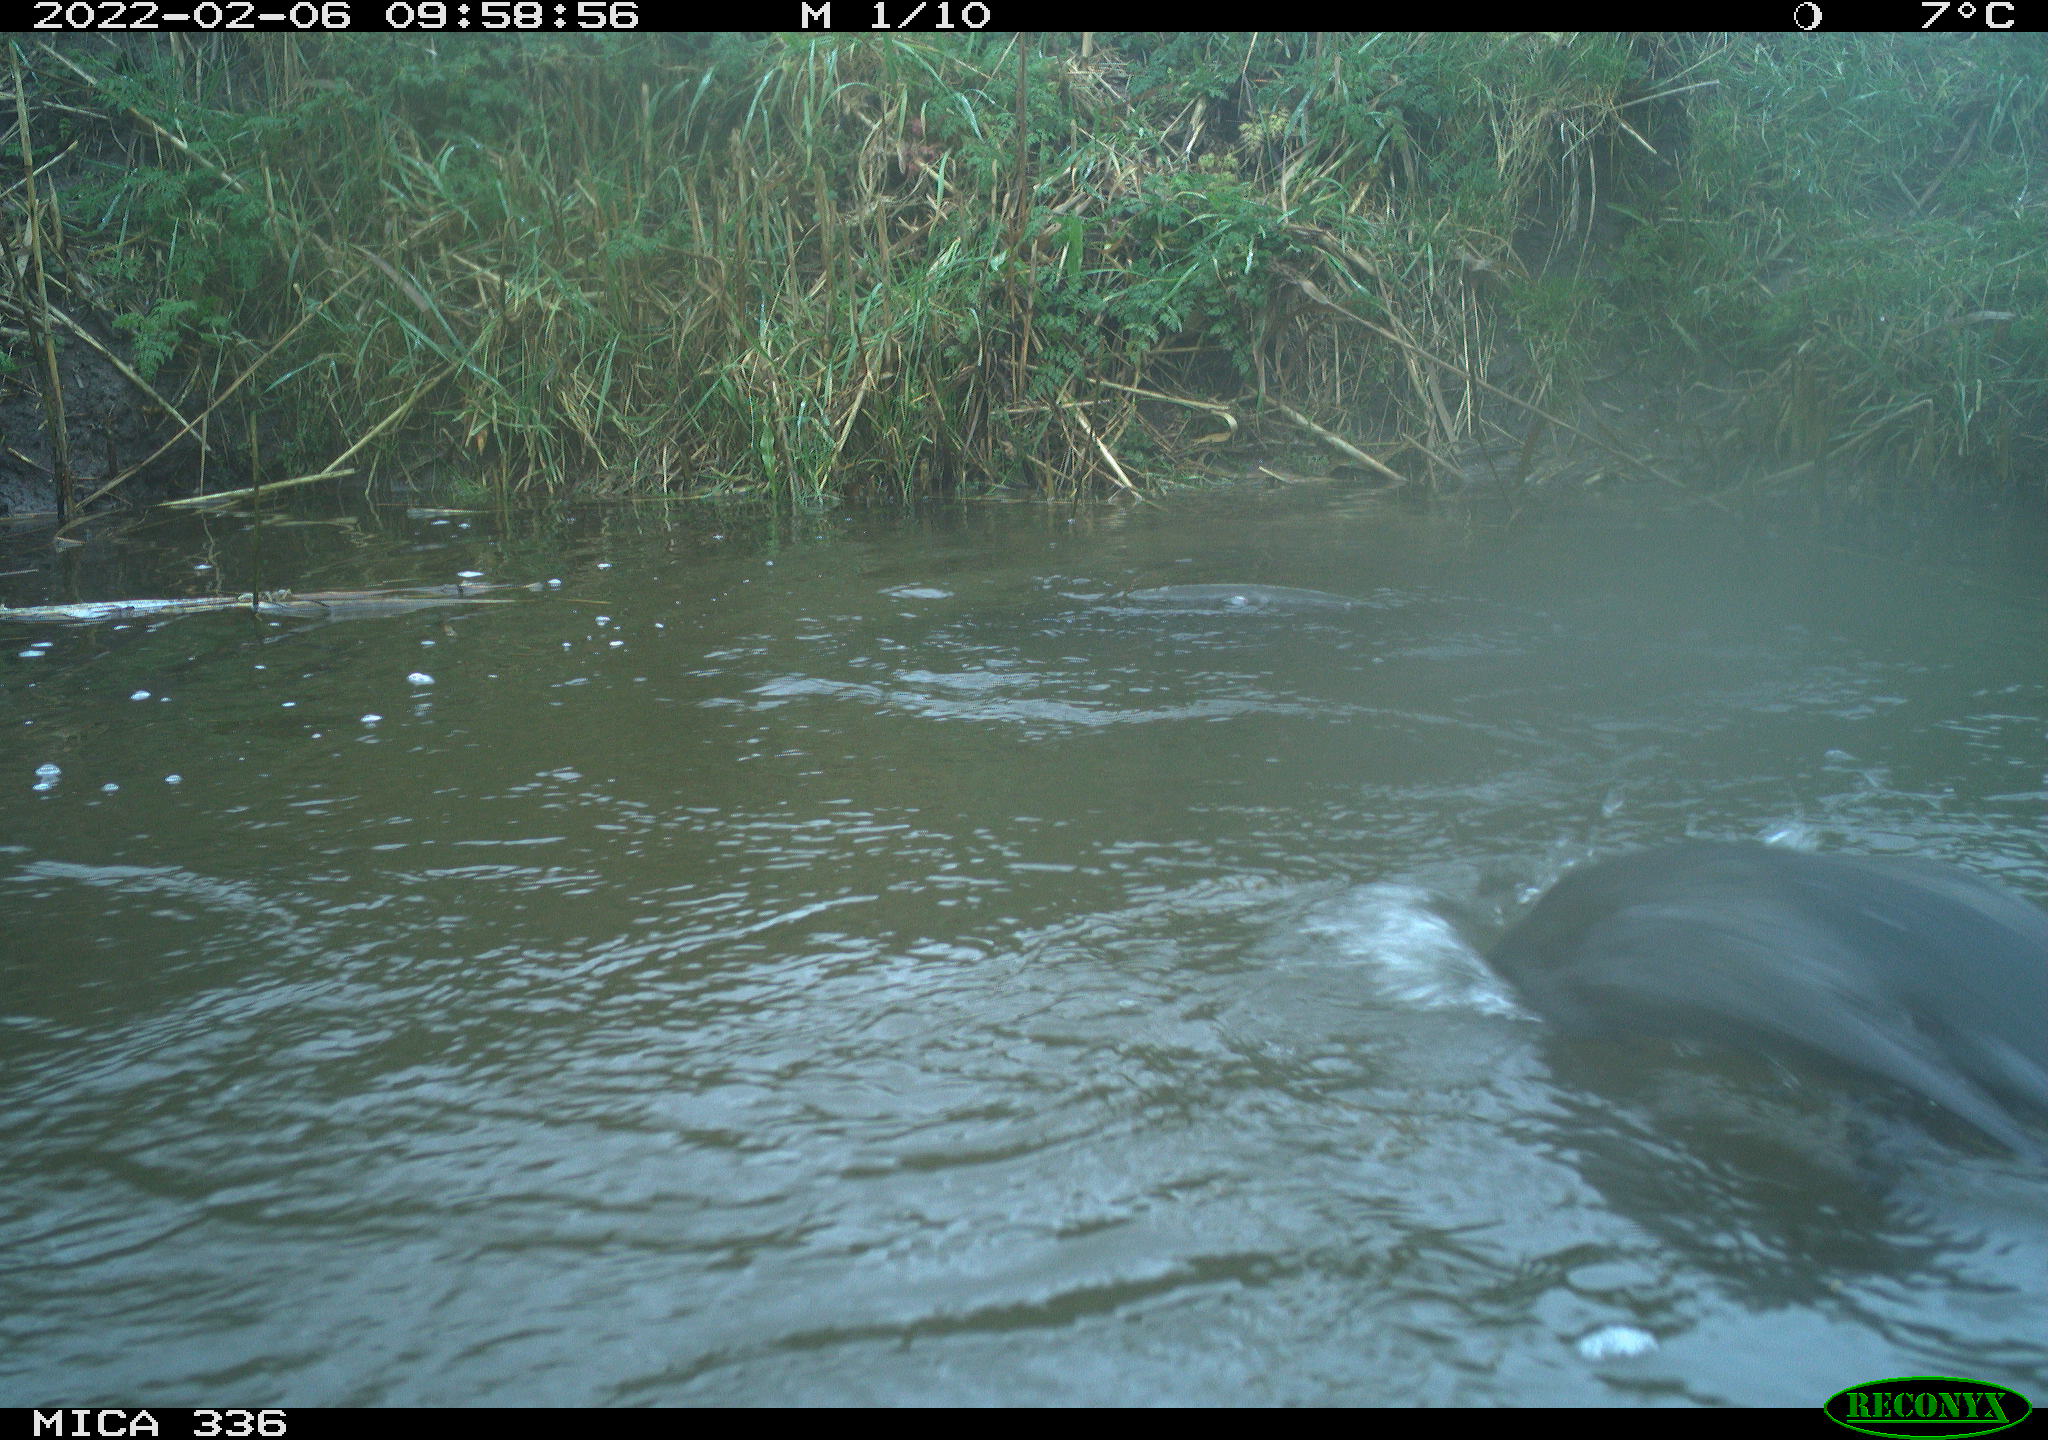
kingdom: Animalia
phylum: Chordata
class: Aves
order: Suliformes
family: Phalacrocoracidae
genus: Phalacrocorax
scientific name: Phalacrocorax carbo
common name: Great cormorant
